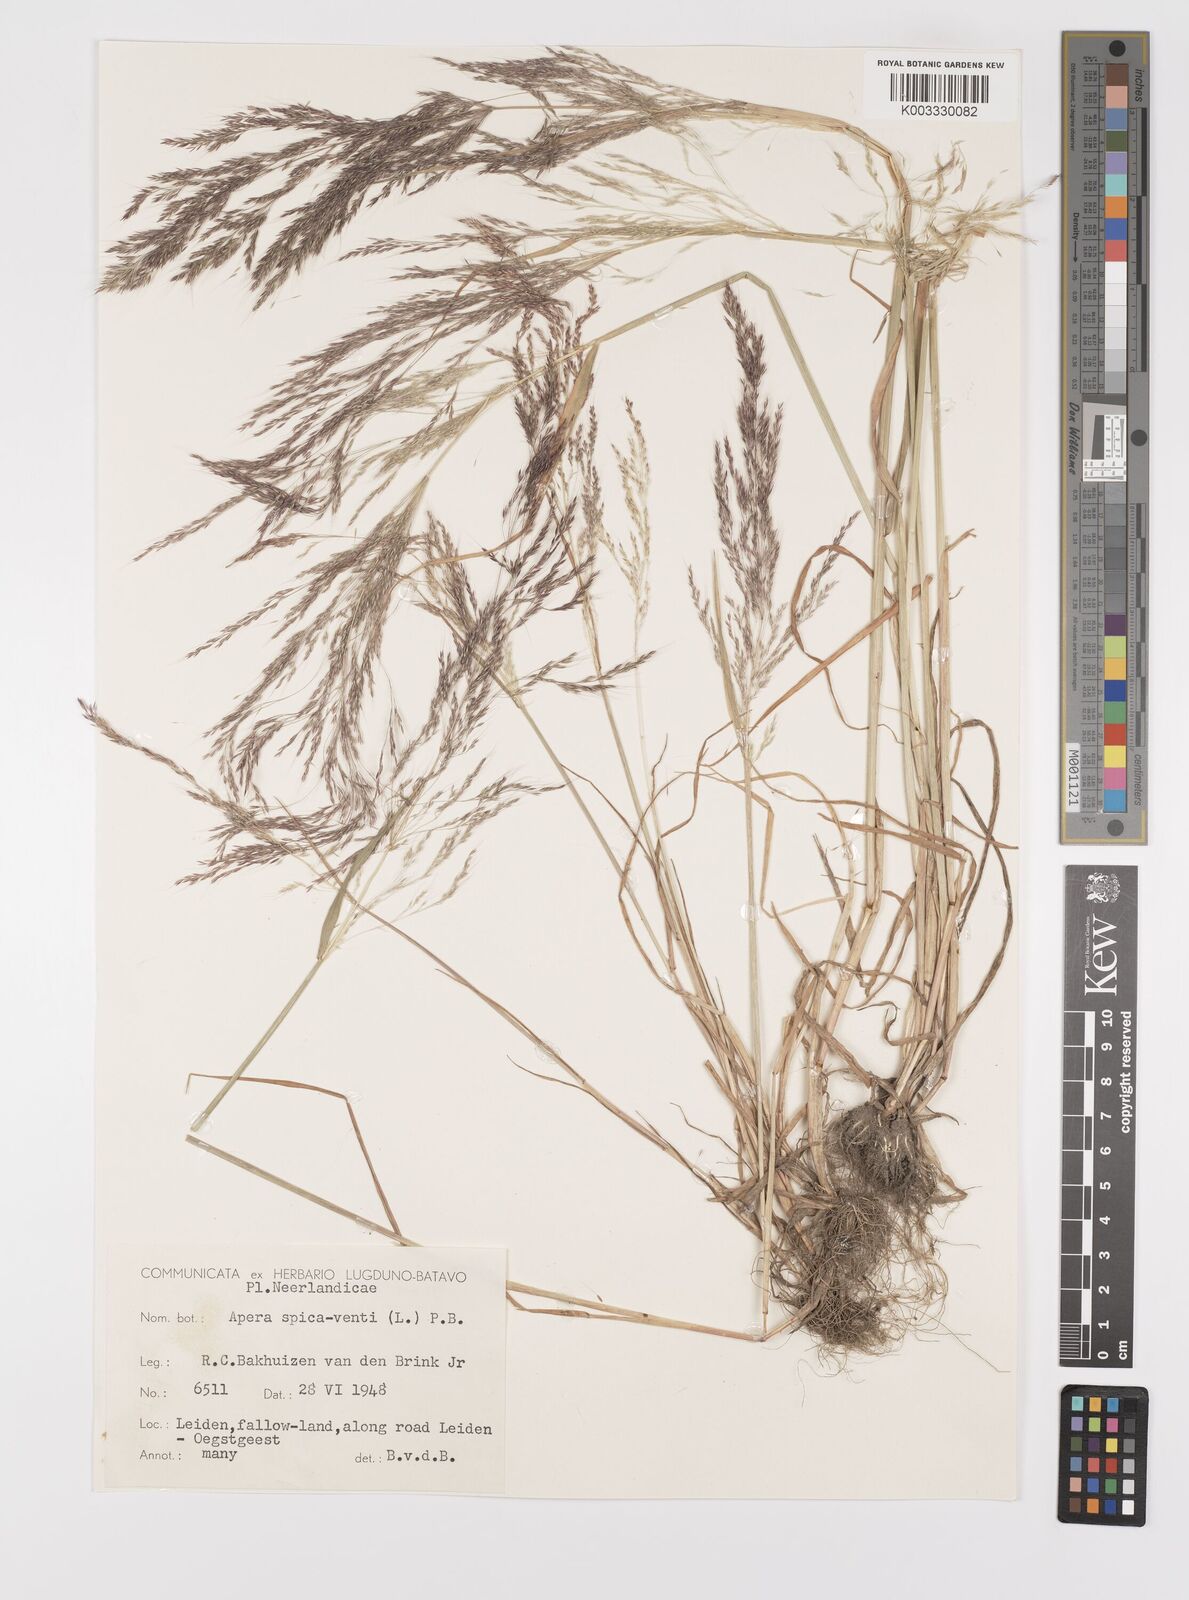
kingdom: Plantae
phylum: Tracheophyta
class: Liliopsida
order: Poales
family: Poaceae
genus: Apera
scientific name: Apera spica-venti
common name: Loose silky-bent
